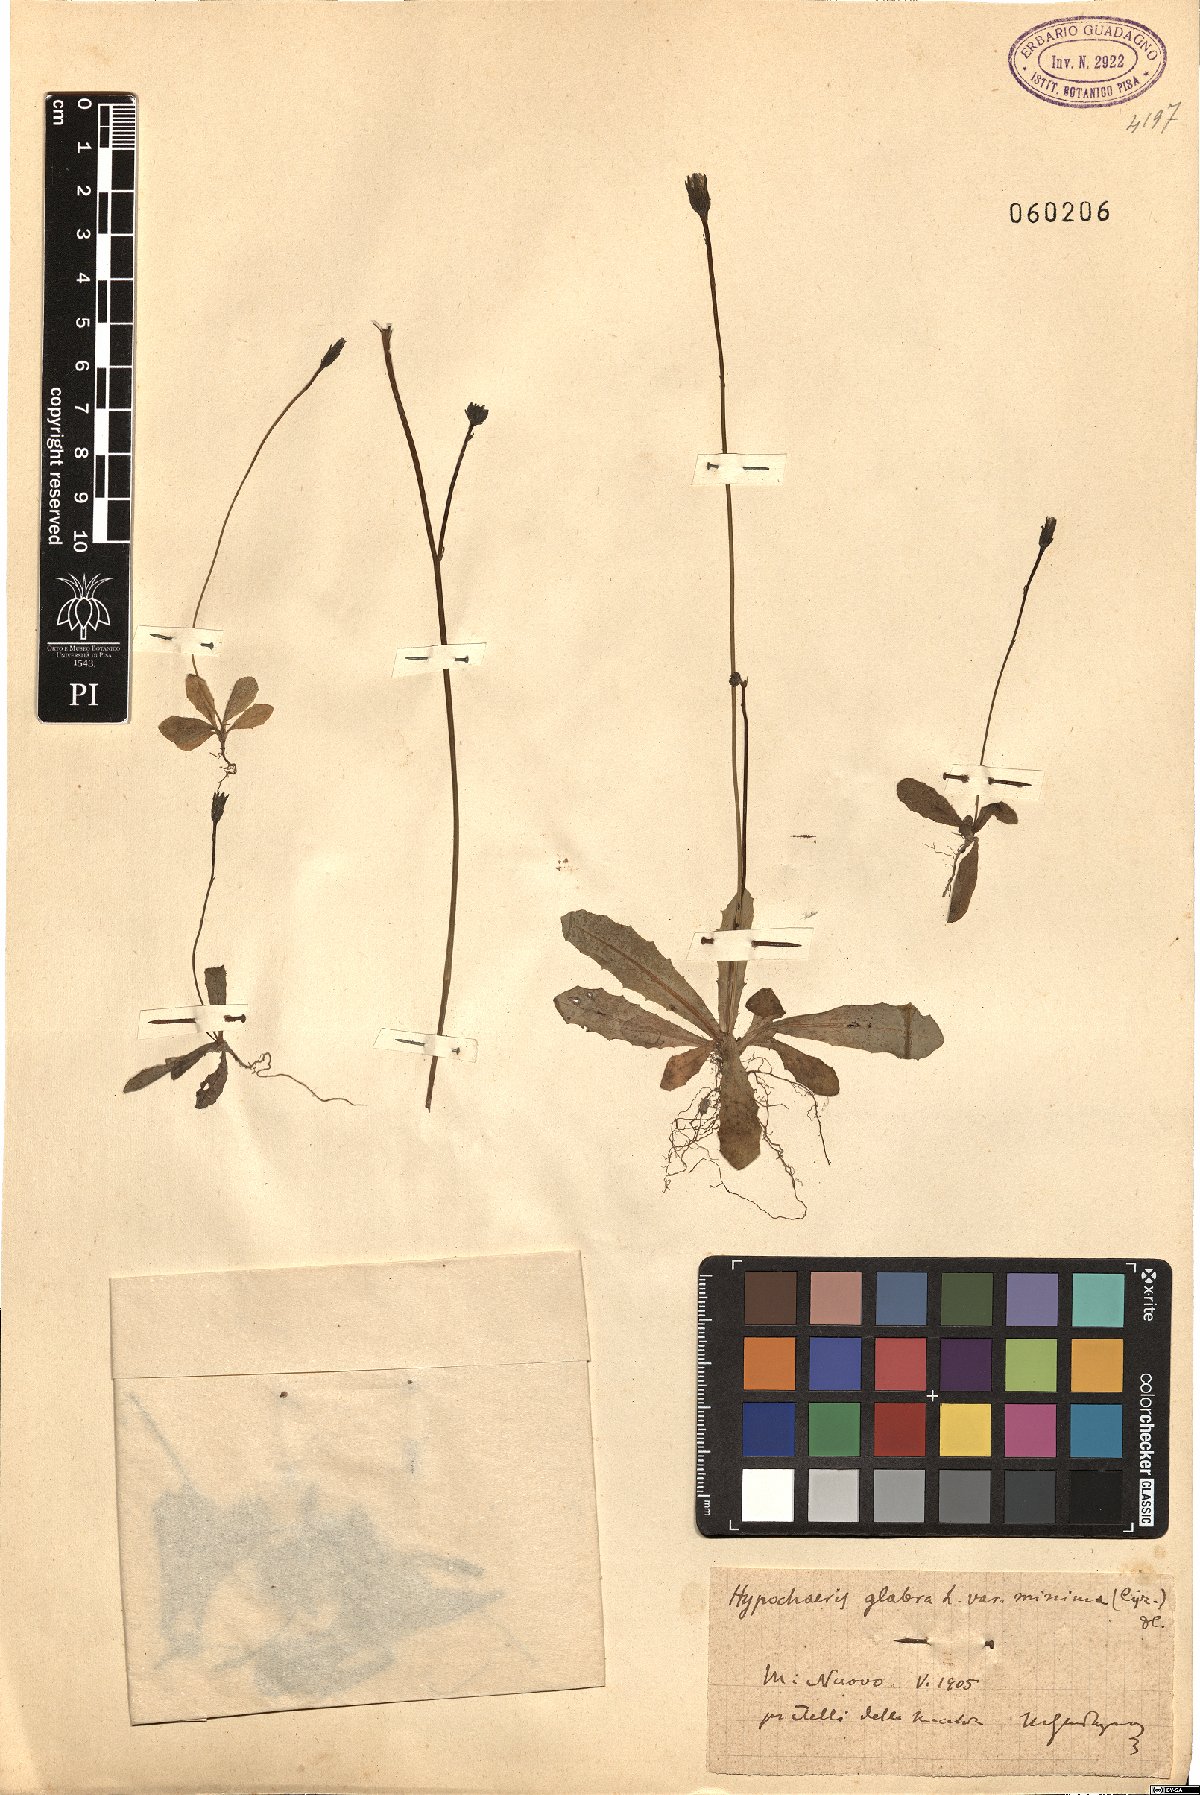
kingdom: Plantae
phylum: Tracheophyta
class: Magnoliopsida
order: Asterales
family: Asteraceae
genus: Hypochaeris
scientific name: Hypochaeris glabra
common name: Smooth catsear
